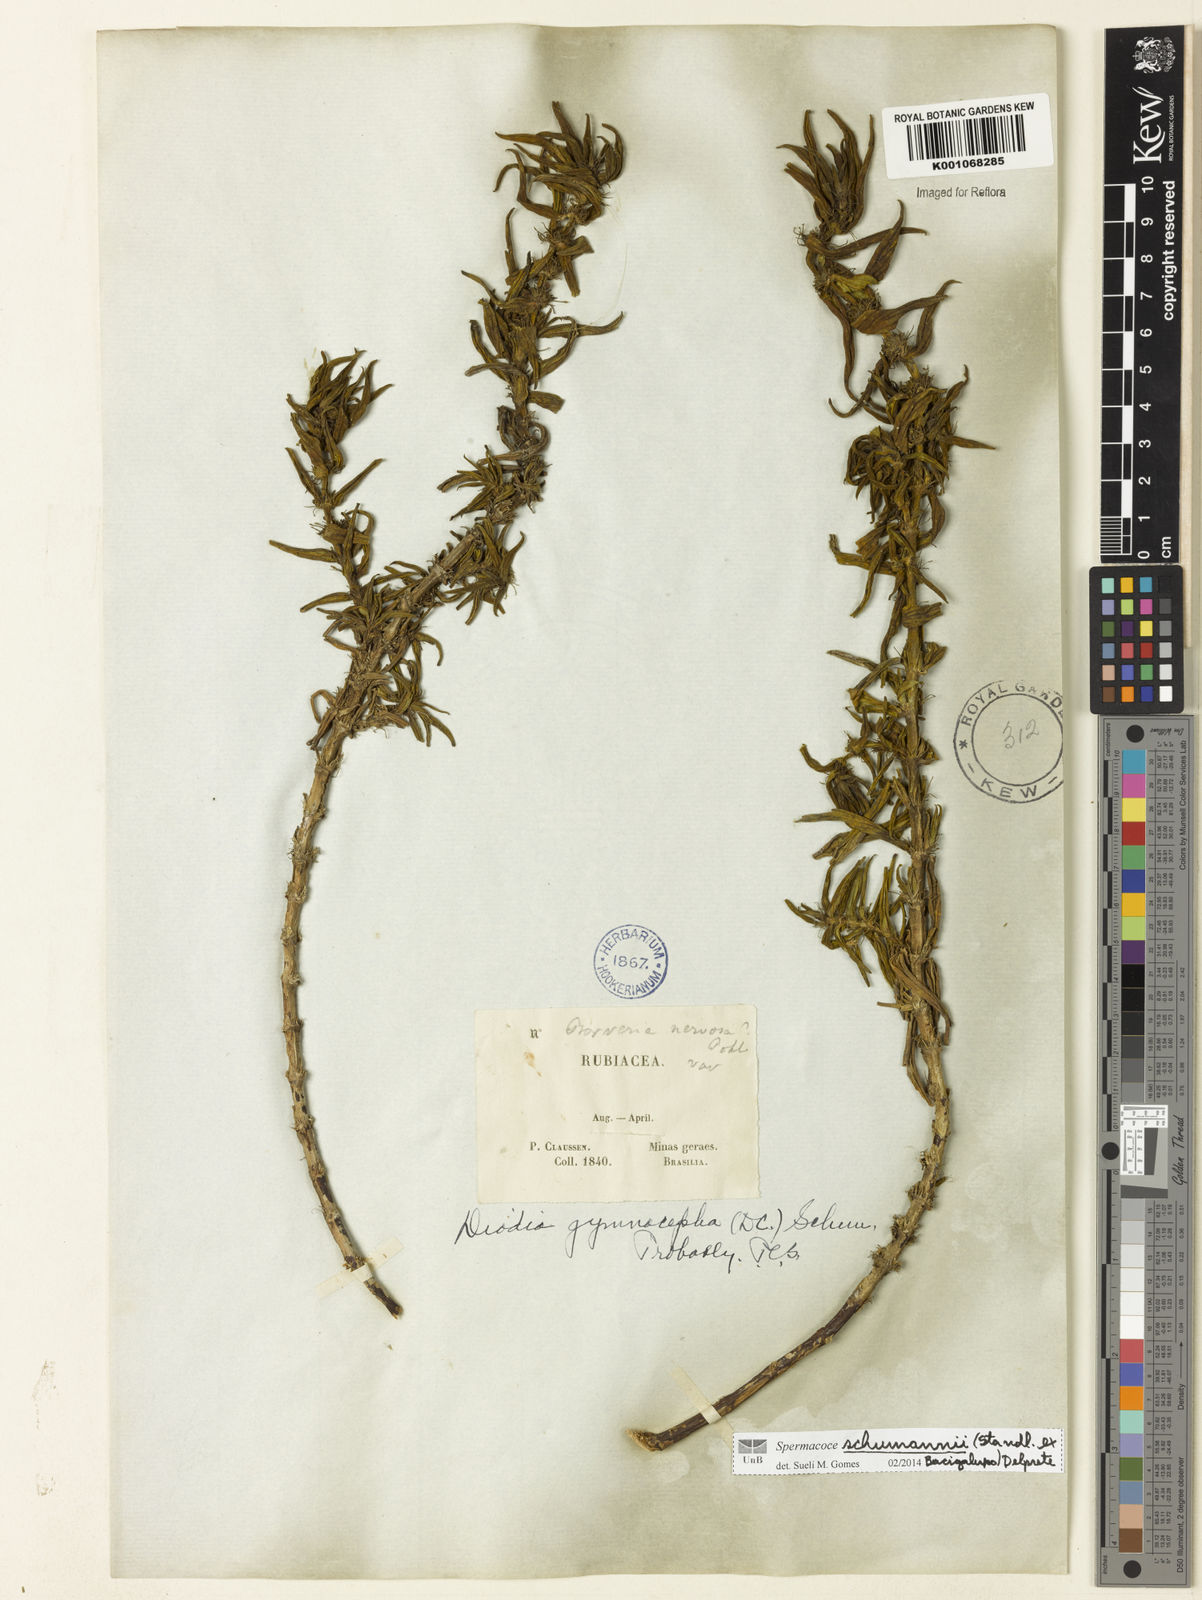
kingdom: Plantae
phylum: Tracheophyta
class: Magnoliopsida
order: Gentianales
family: Rubiaceae
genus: Spermacoce
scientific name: Spermacoce schumannii
